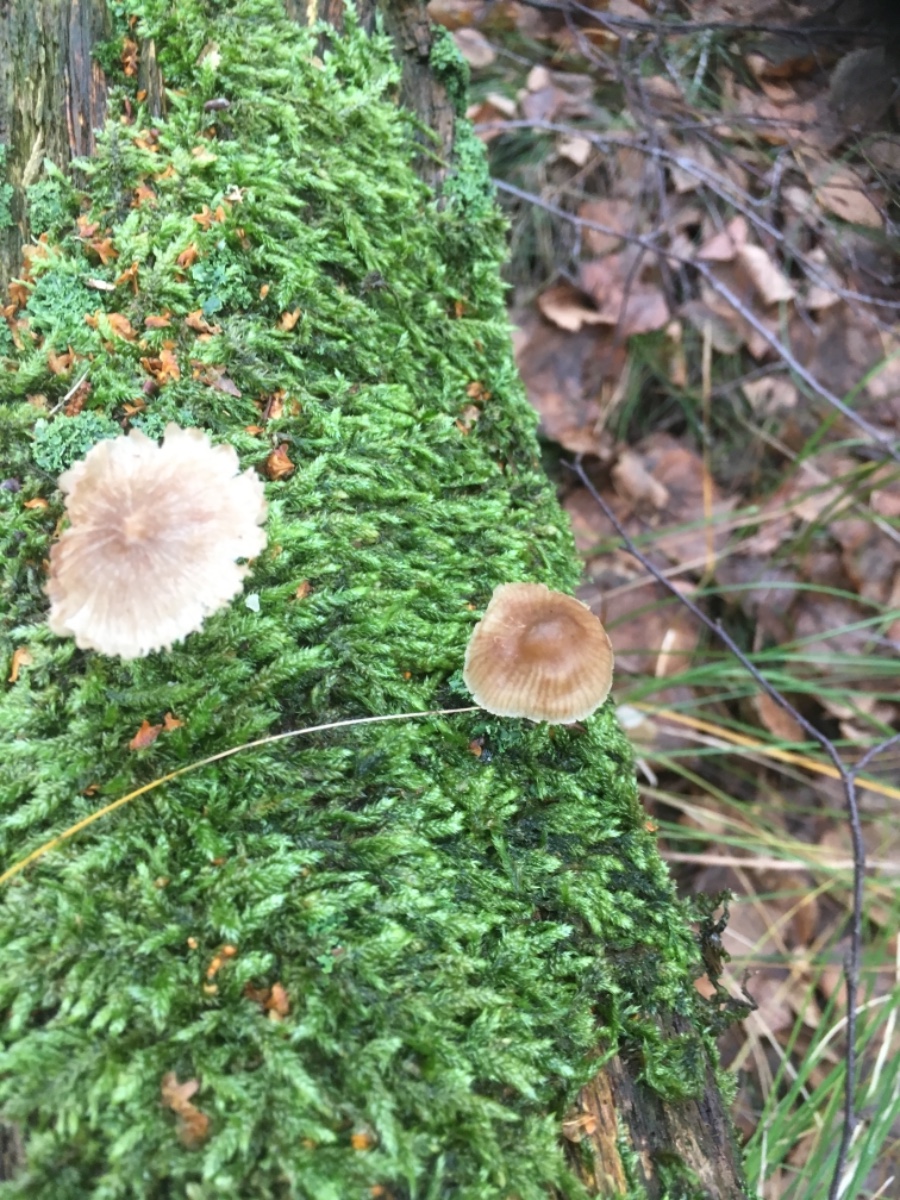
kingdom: Fungi
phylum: Basidiomycota
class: Agaricomycetes
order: Agaricales
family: Mycenaceae
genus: Mycena
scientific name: Mycena
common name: huesvamp
